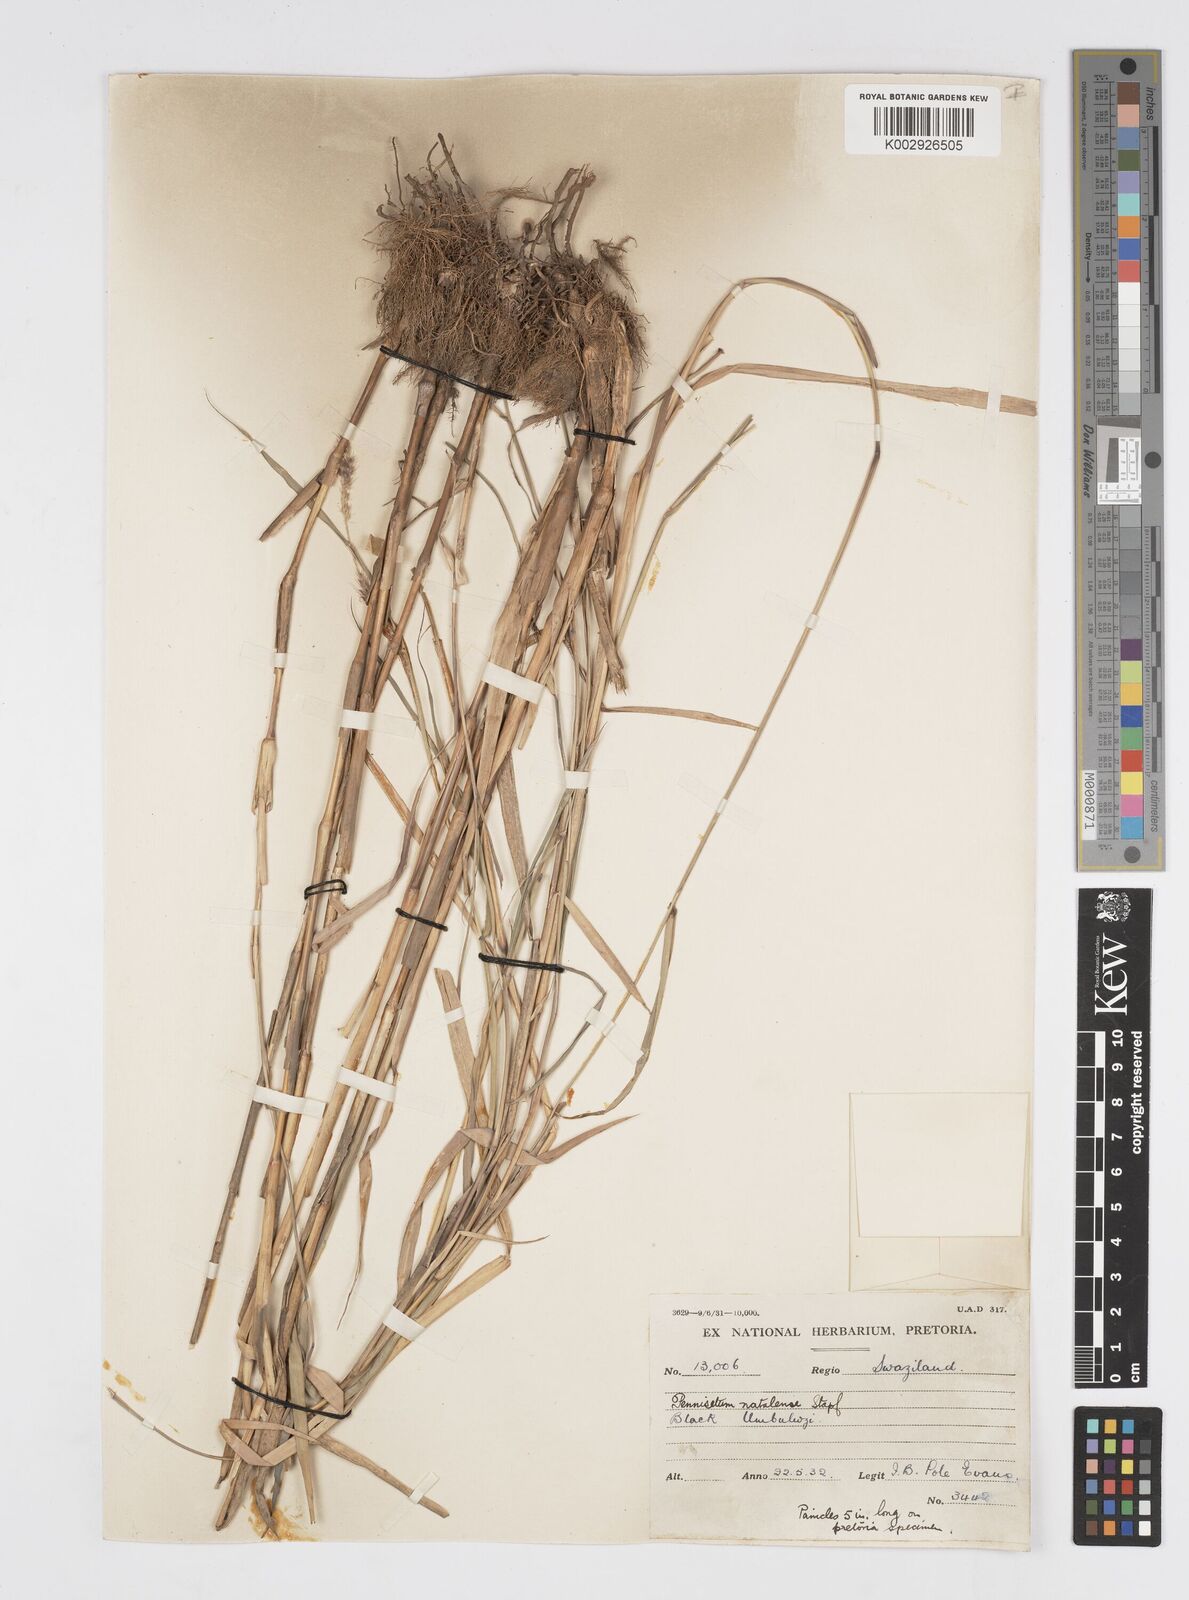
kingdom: Plantae
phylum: Tracheophyta
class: Liliopsida
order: Poales
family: Poaceae
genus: Cenchrus
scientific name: Cenchrus caudatus
